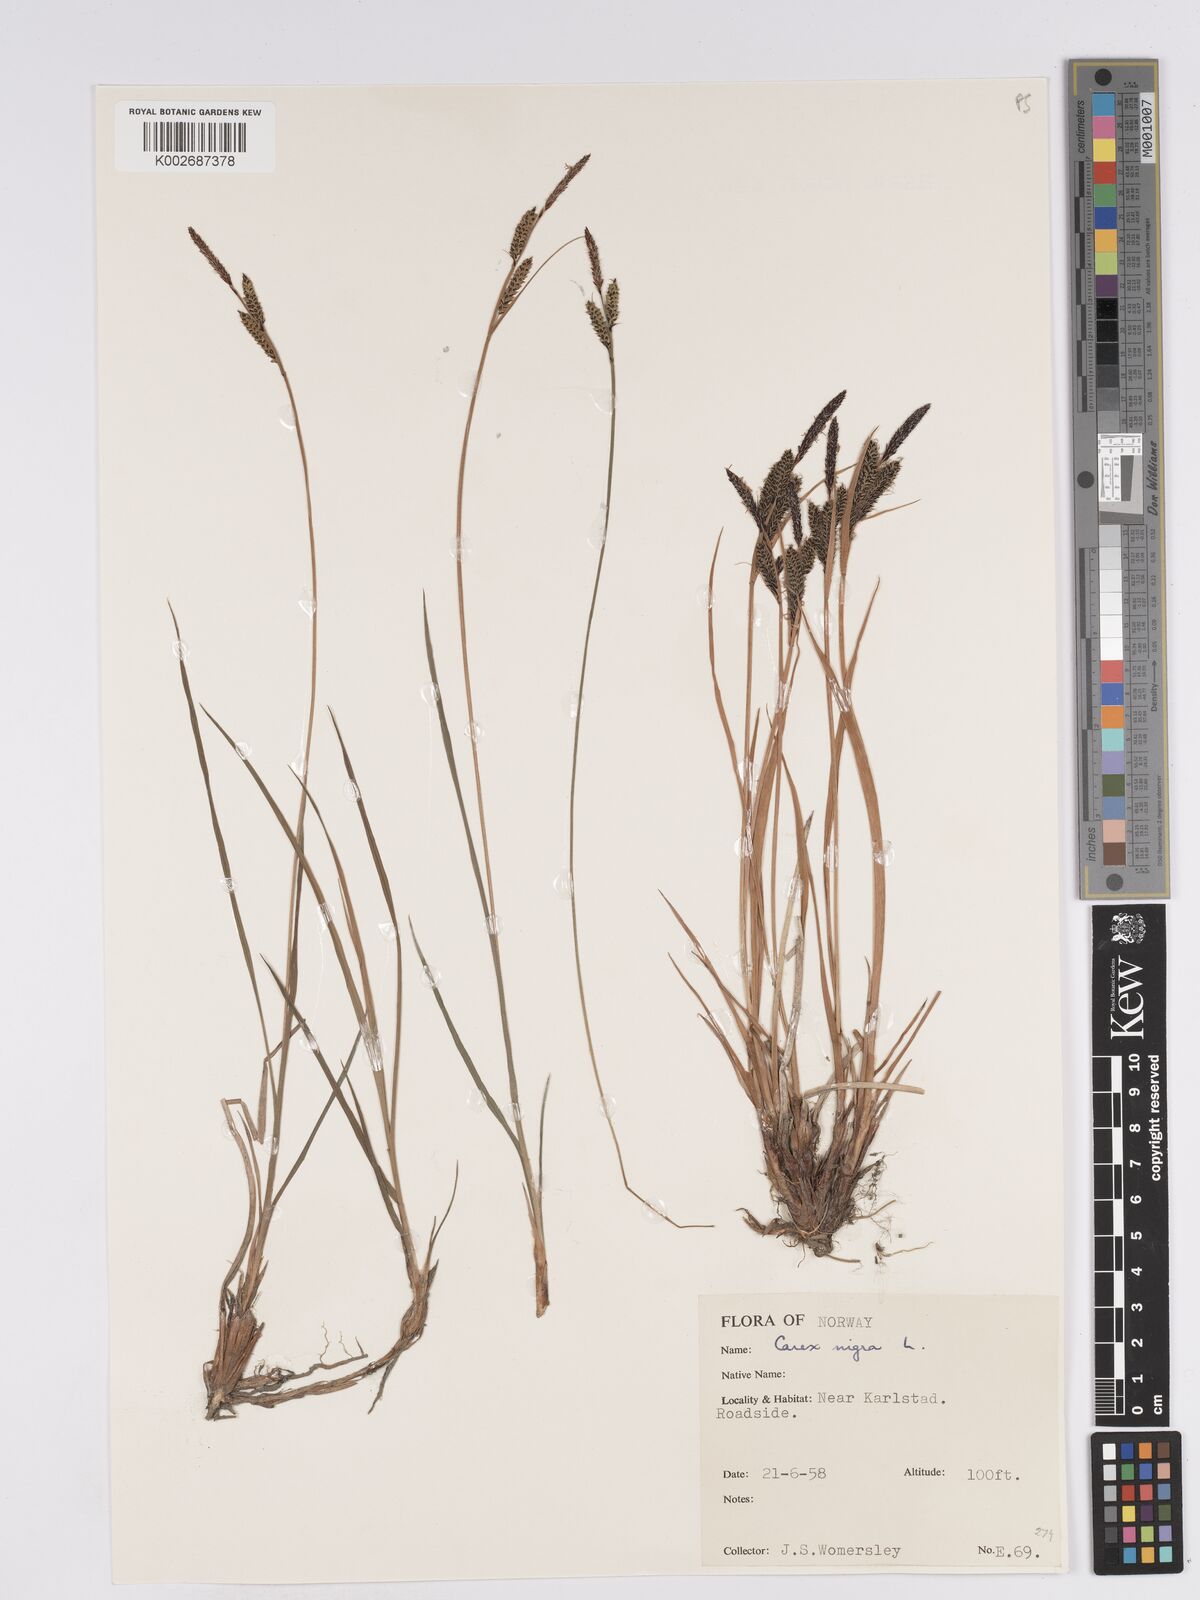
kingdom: Plantae
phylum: Tracheophyta
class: Liliopsida
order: Poales
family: Cyperaceae
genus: Carex
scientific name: Carex nigra
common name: Common sedge
